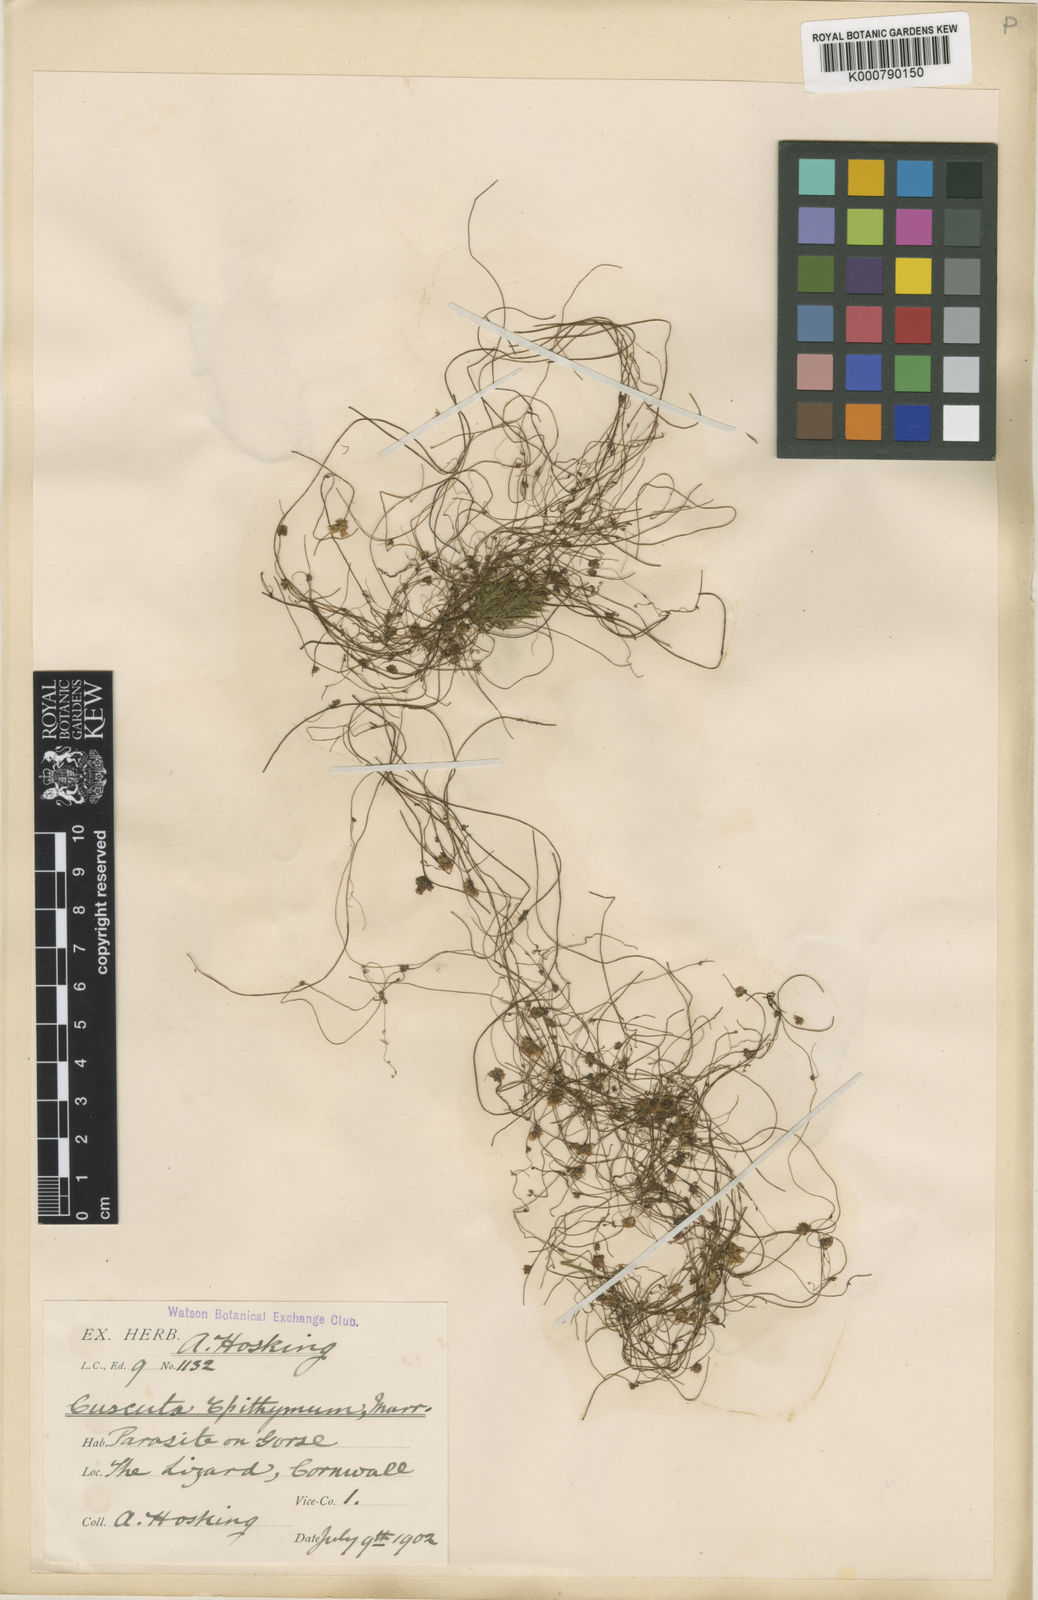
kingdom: Plantae
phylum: Tracheophyta
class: Magnoliopsida
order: Solanales
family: Convolvulaceae
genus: Cuscuta
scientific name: Cuscuta epithymum
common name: Clover dodder
